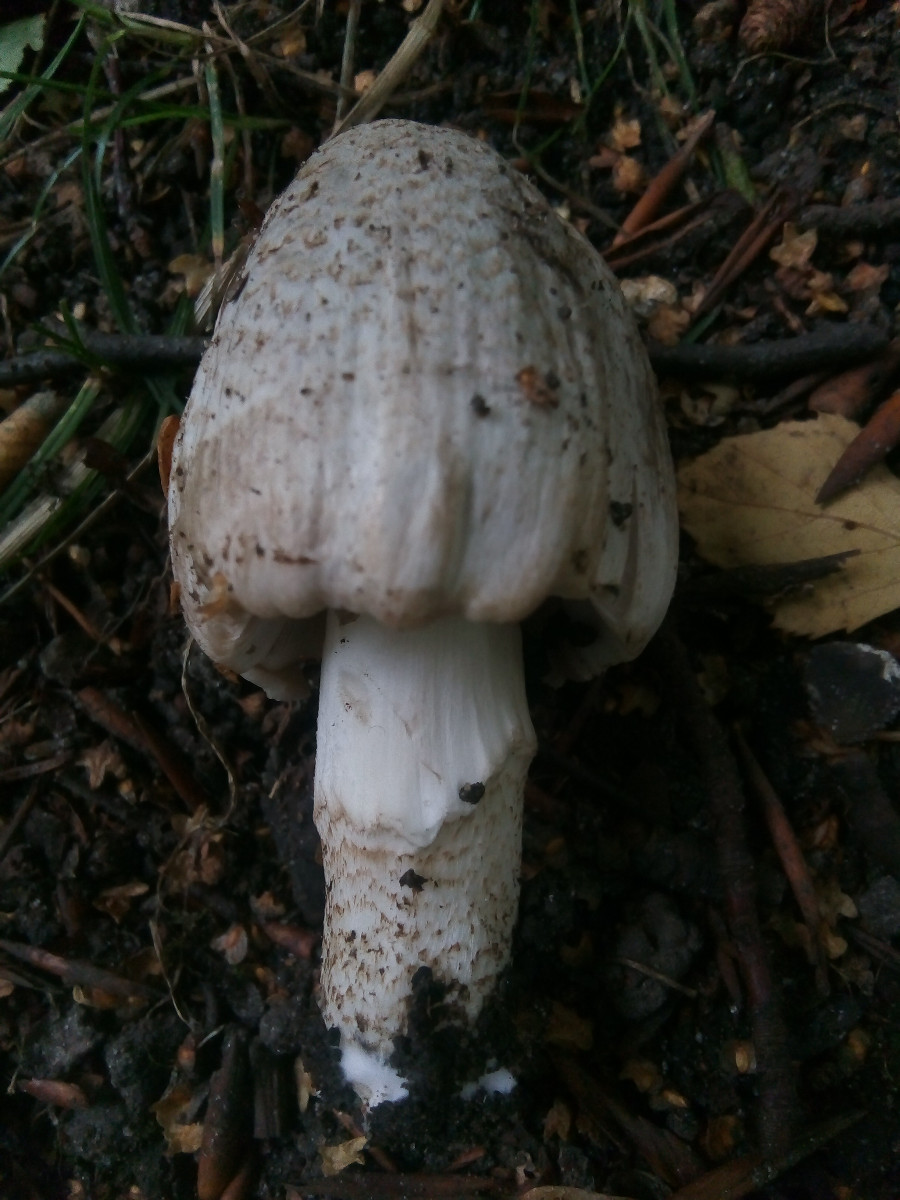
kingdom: Fungi
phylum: Basidiomycota
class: Agaricomycetes
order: Agaricales
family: Psathyrellaceae
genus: Coprinopsis
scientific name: Coprinopsis romagnesiana
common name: brunskællet blækhat
